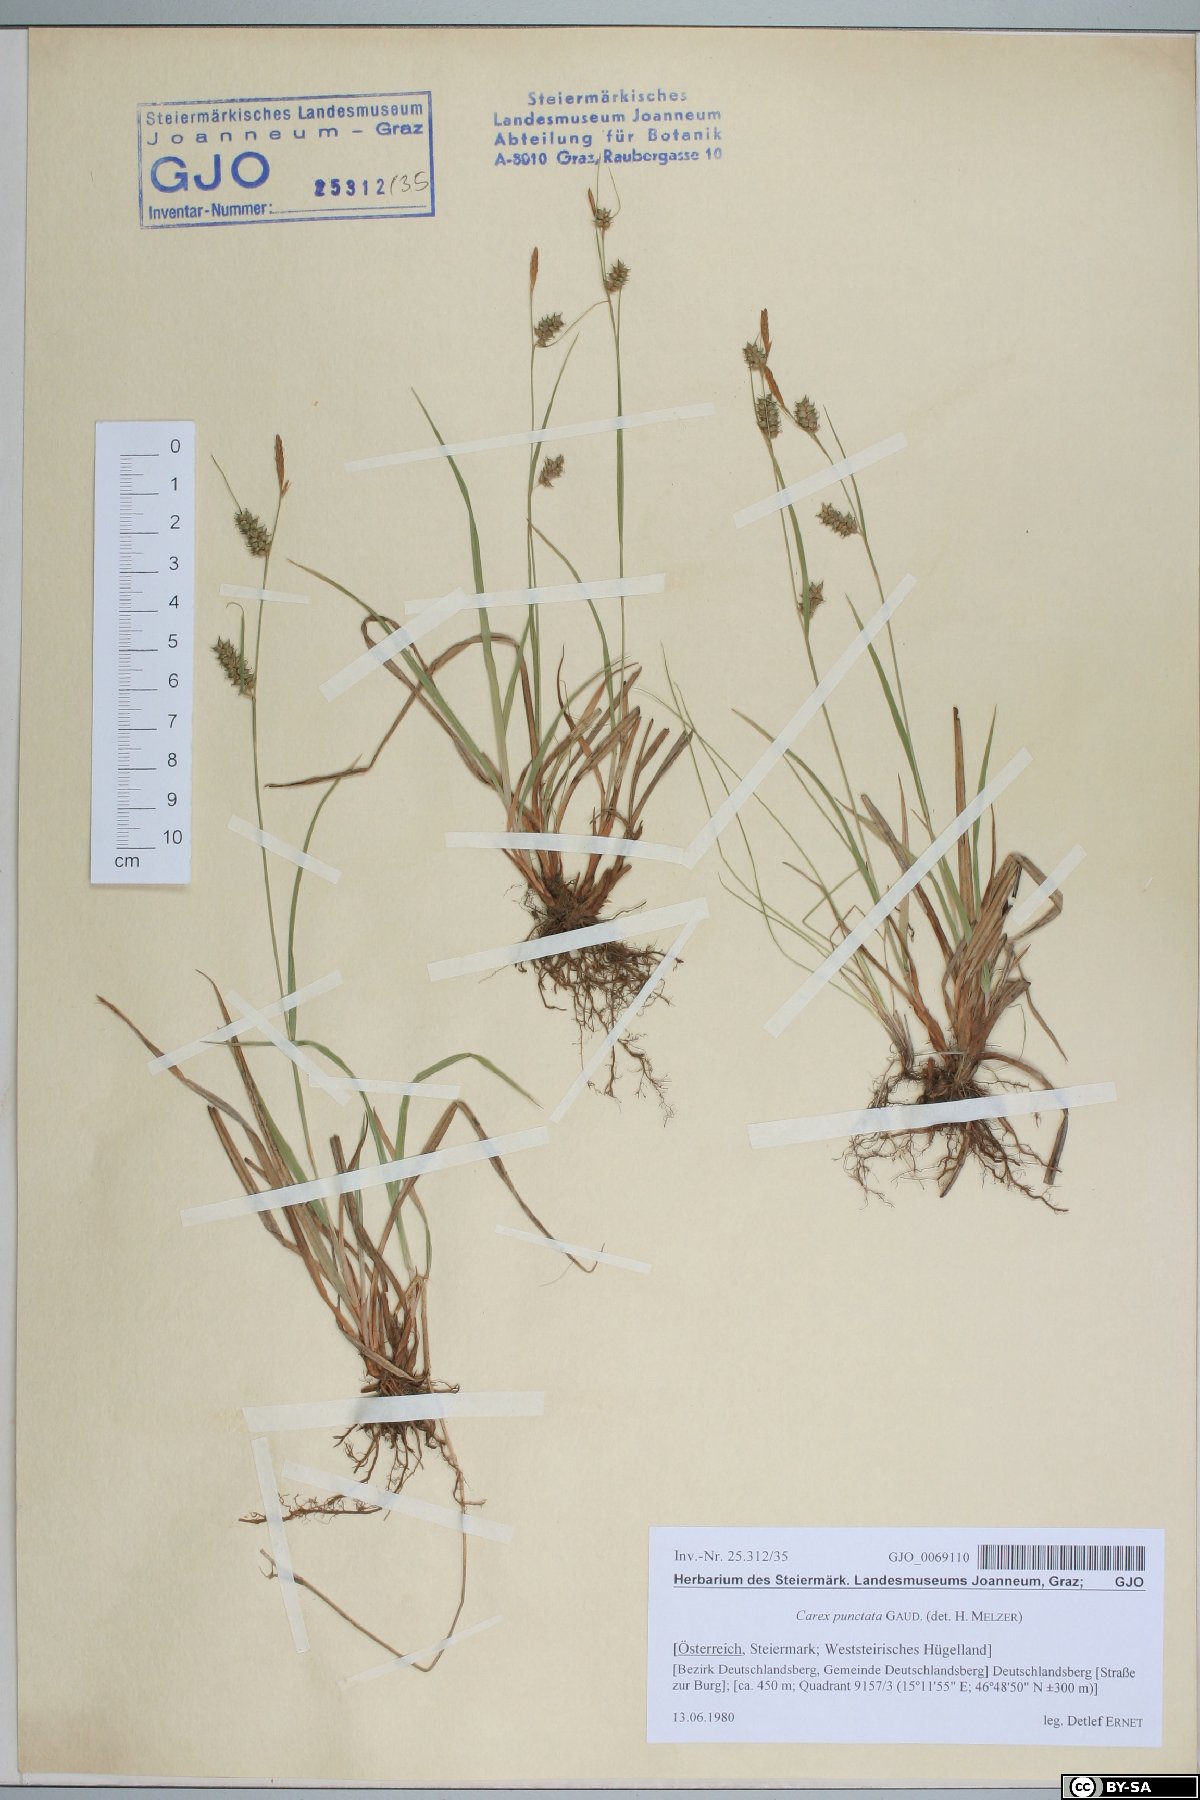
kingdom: Plantae
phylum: Tracheophyta
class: Liliopsida
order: Poales
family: Cyperaceae
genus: Carex
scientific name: Carex punctata
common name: Dotted sedge
